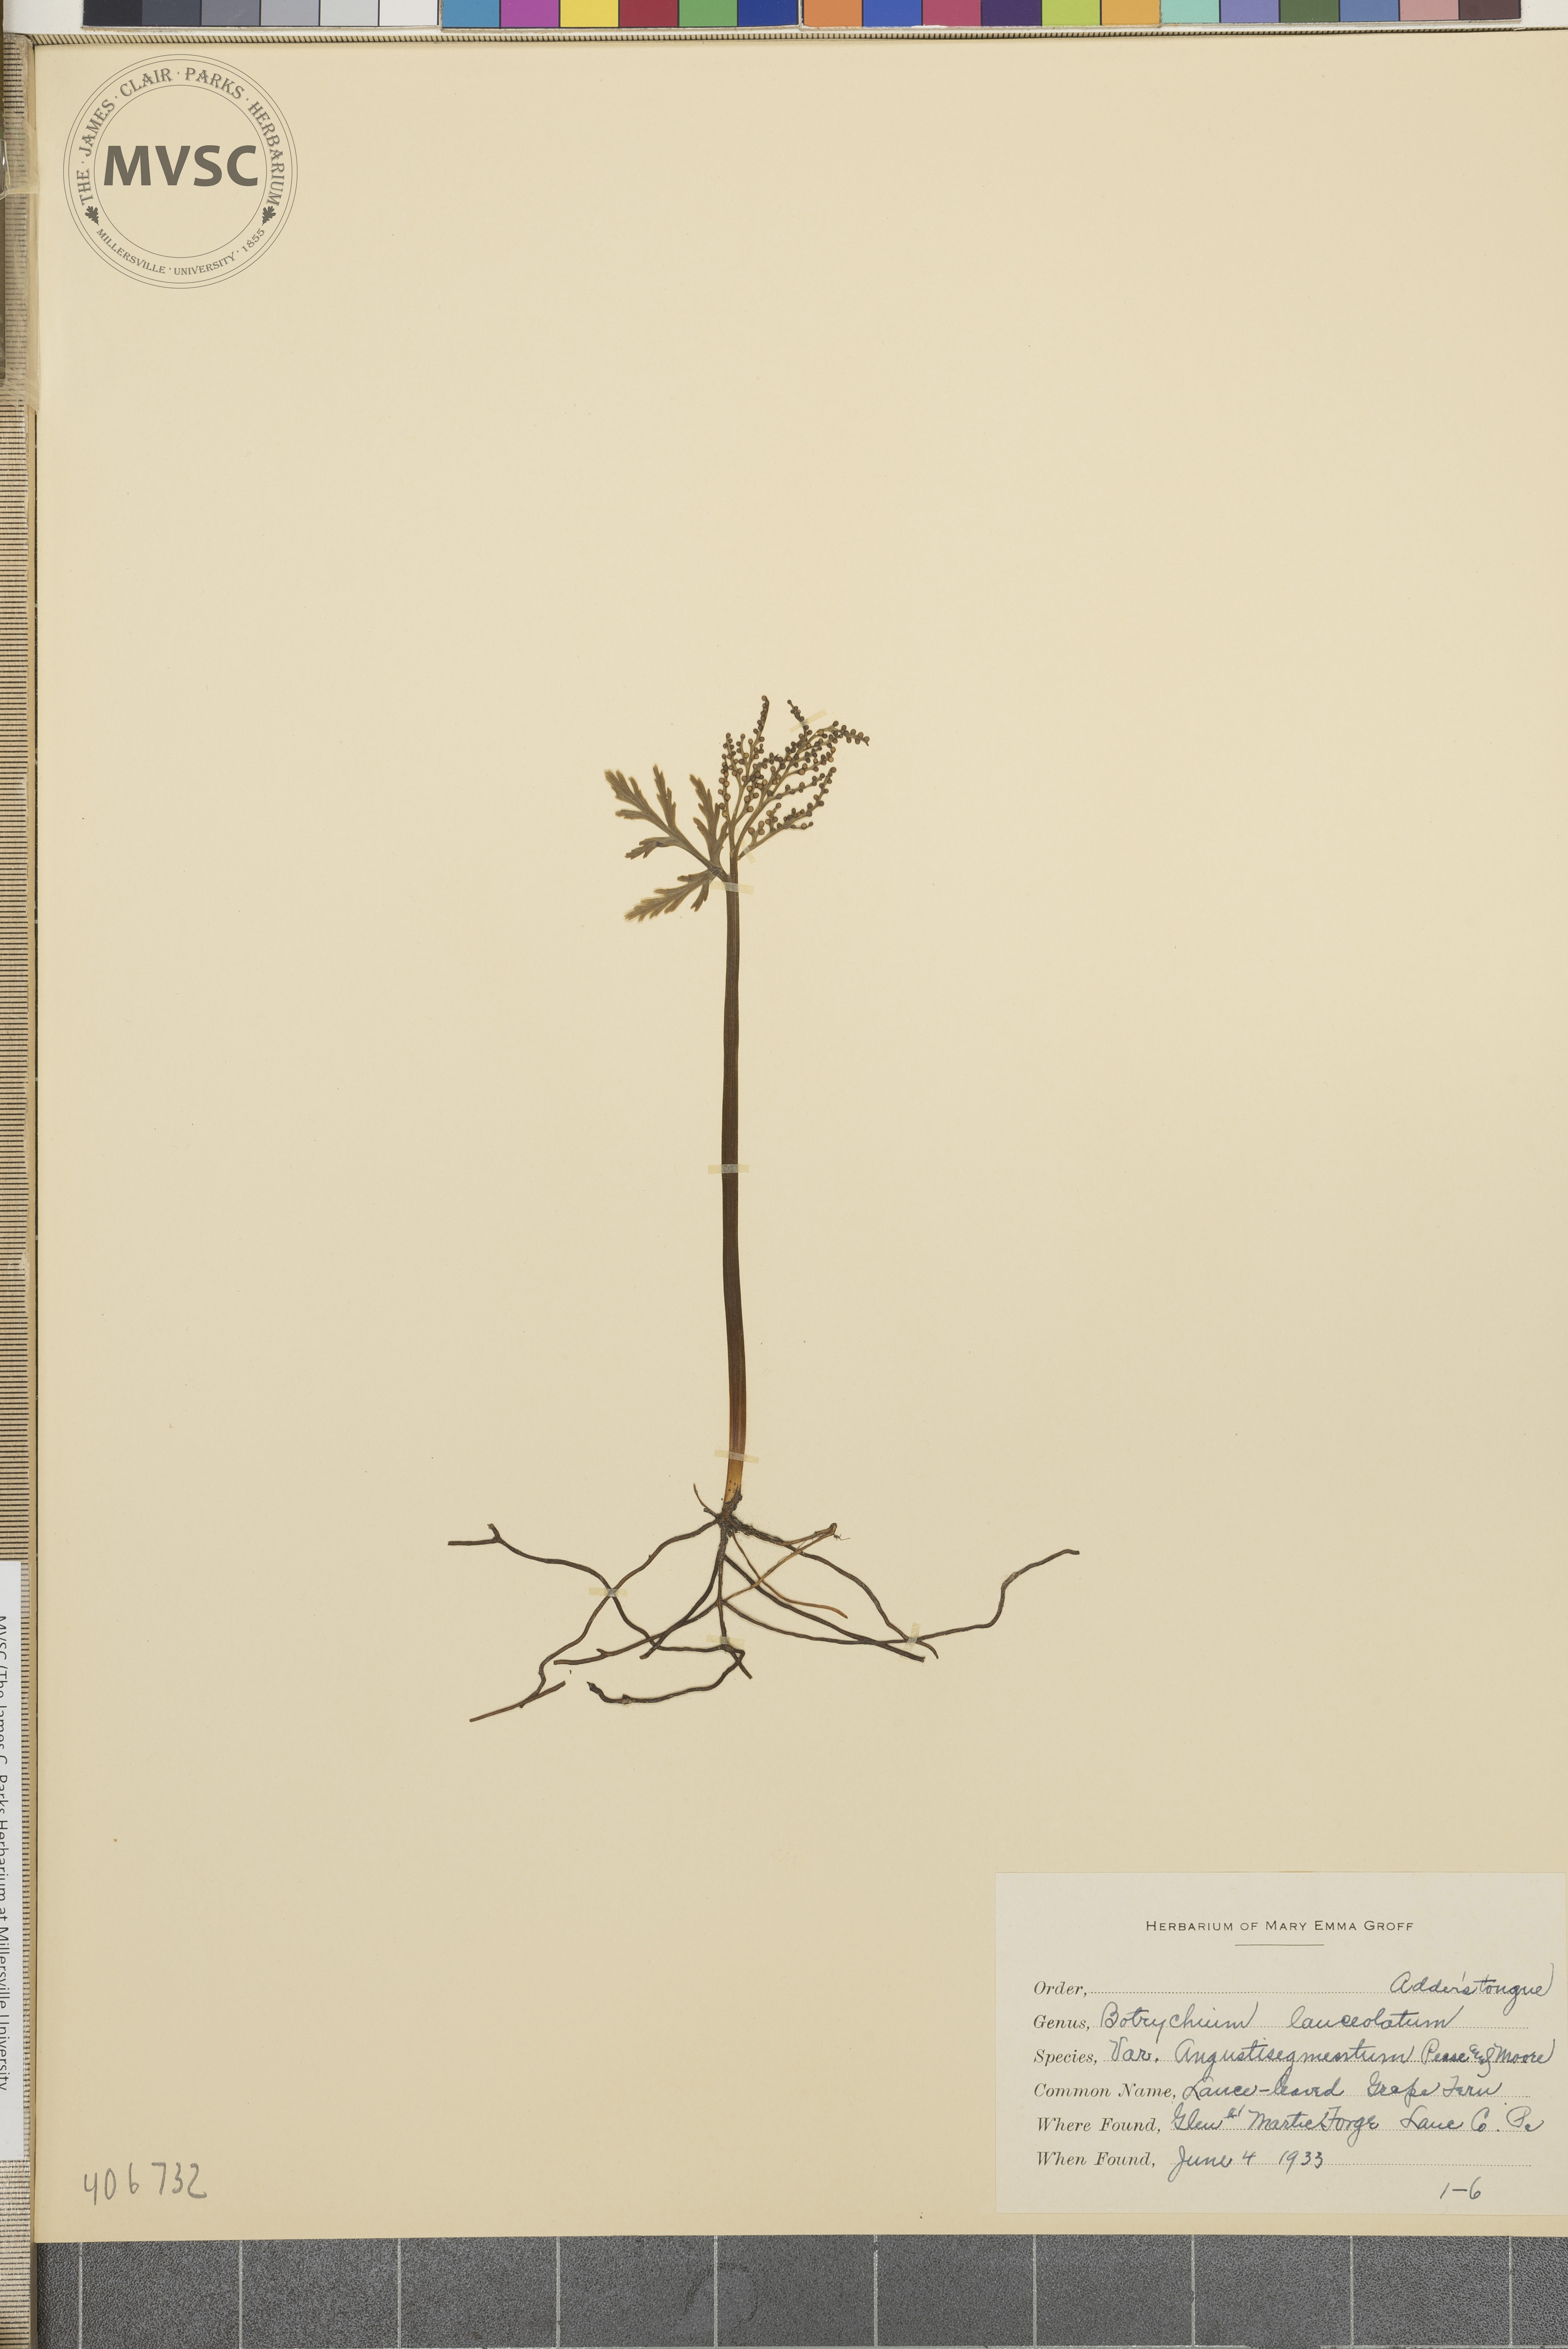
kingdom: Plantae
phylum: Tracheophyta
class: Polypodiopsida
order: Ophioglossales
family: Ophioglossaceae
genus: Botrychium
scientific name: Botrychium lanceolatum
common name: Lance-leaved moonwort
